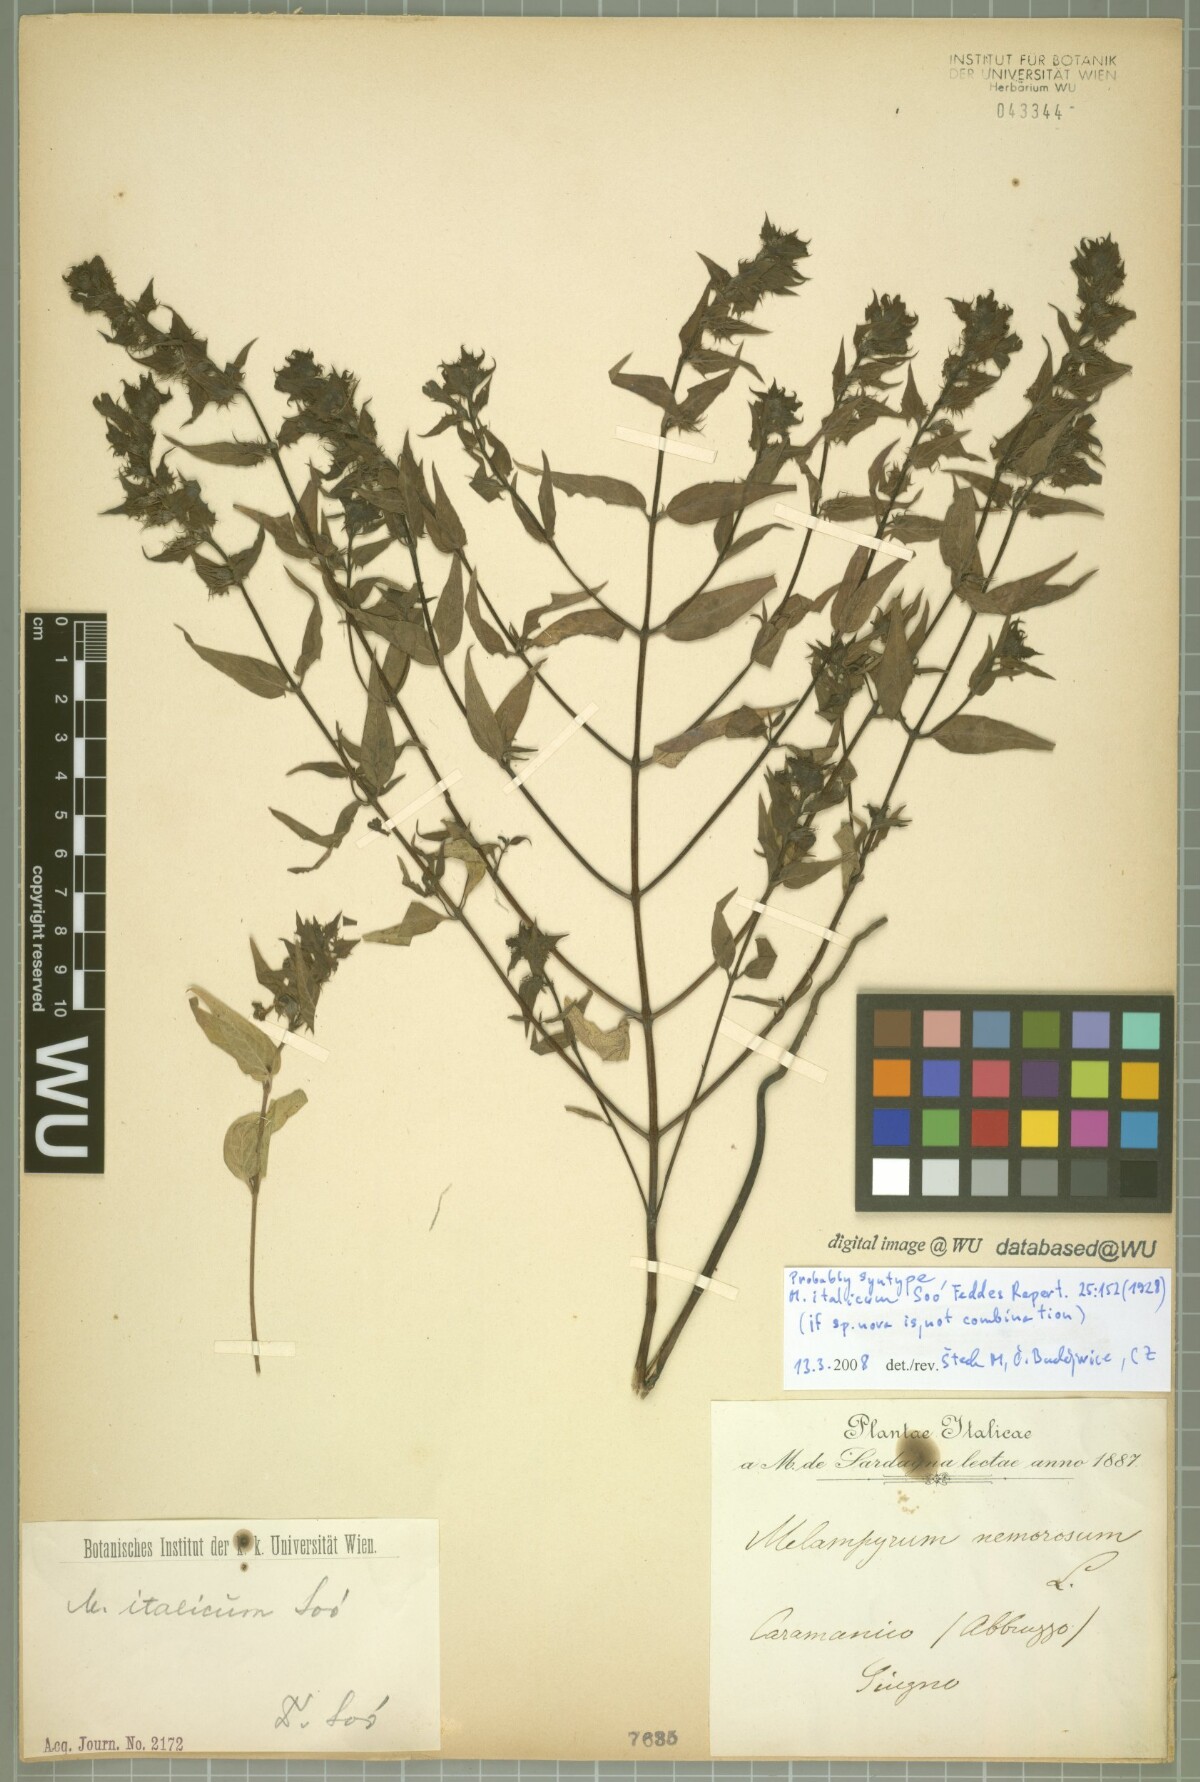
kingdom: Plantae
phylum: Tracheophyta
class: Magnoliopsida
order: Lamiales
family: Orobanchaceae
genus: Melampyrum
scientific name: Melampyrum italicum
